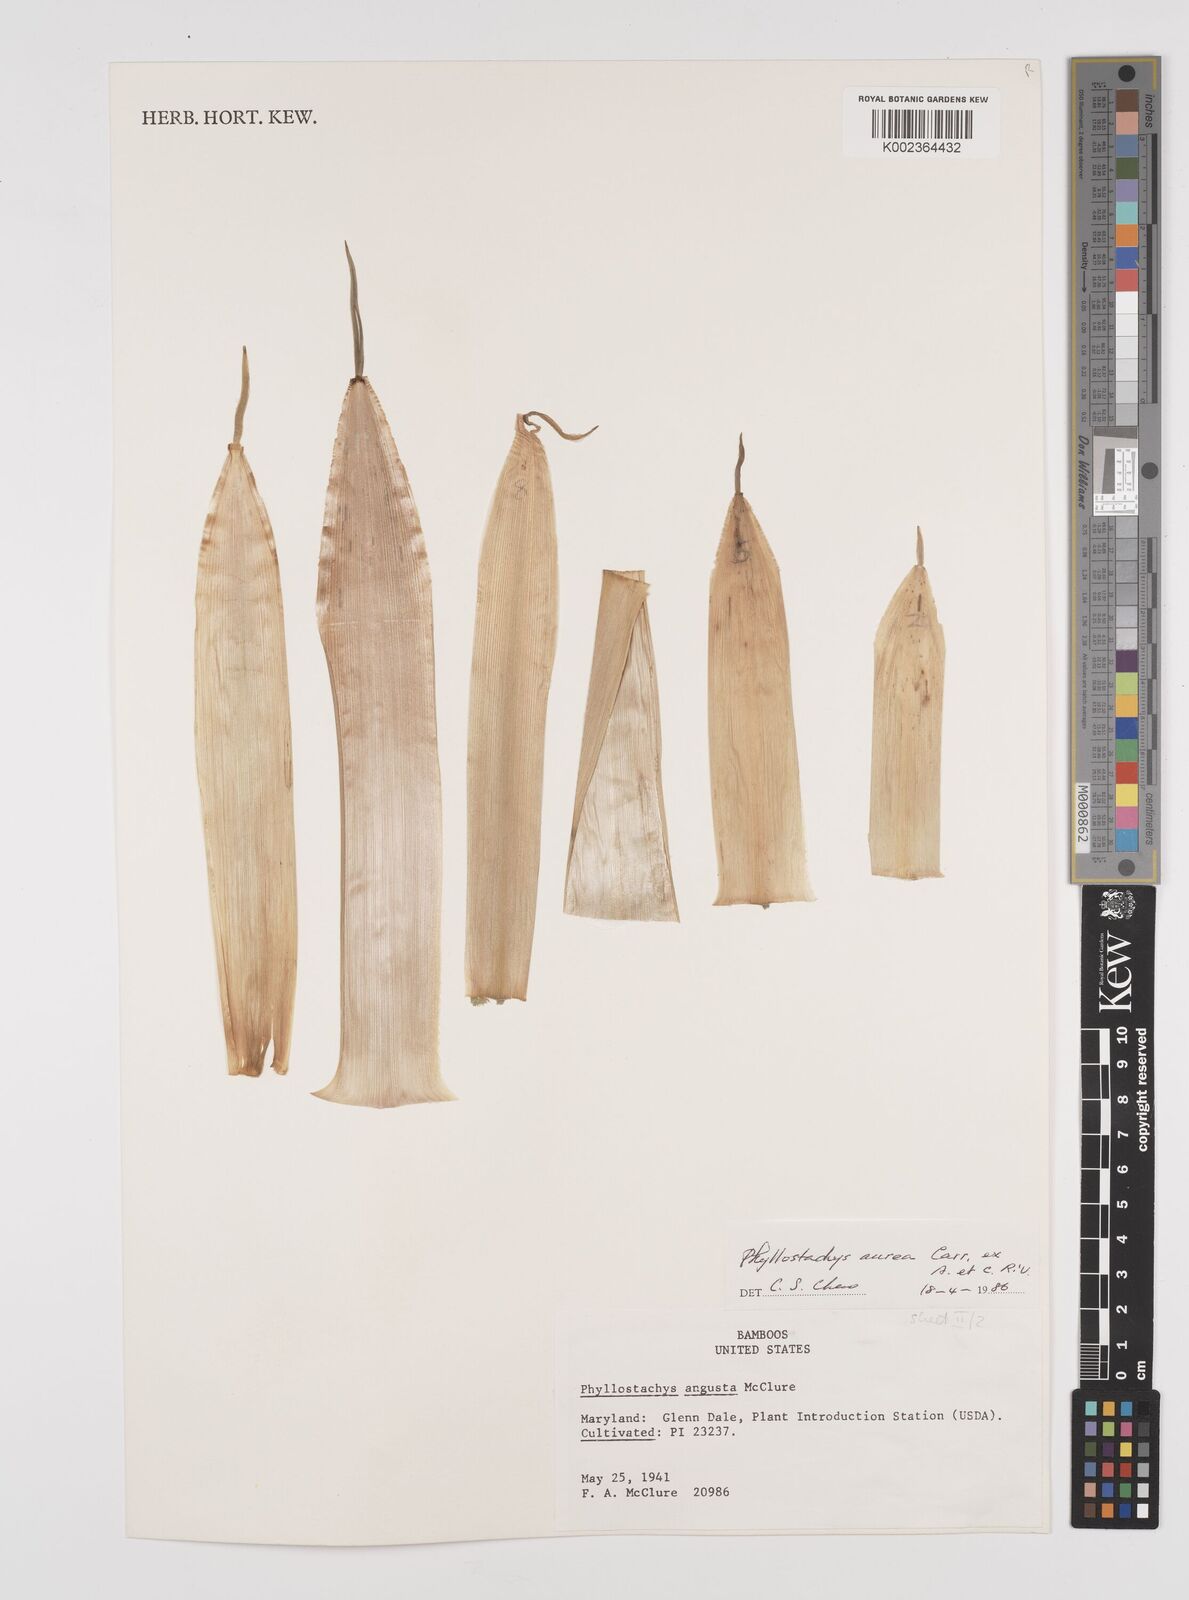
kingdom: Plantae
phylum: Tracheophyta
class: Liliopsida
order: Poales
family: Poaceae
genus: Phyllostachys
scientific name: Phyllostachys aurea
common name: Golden bamboo
